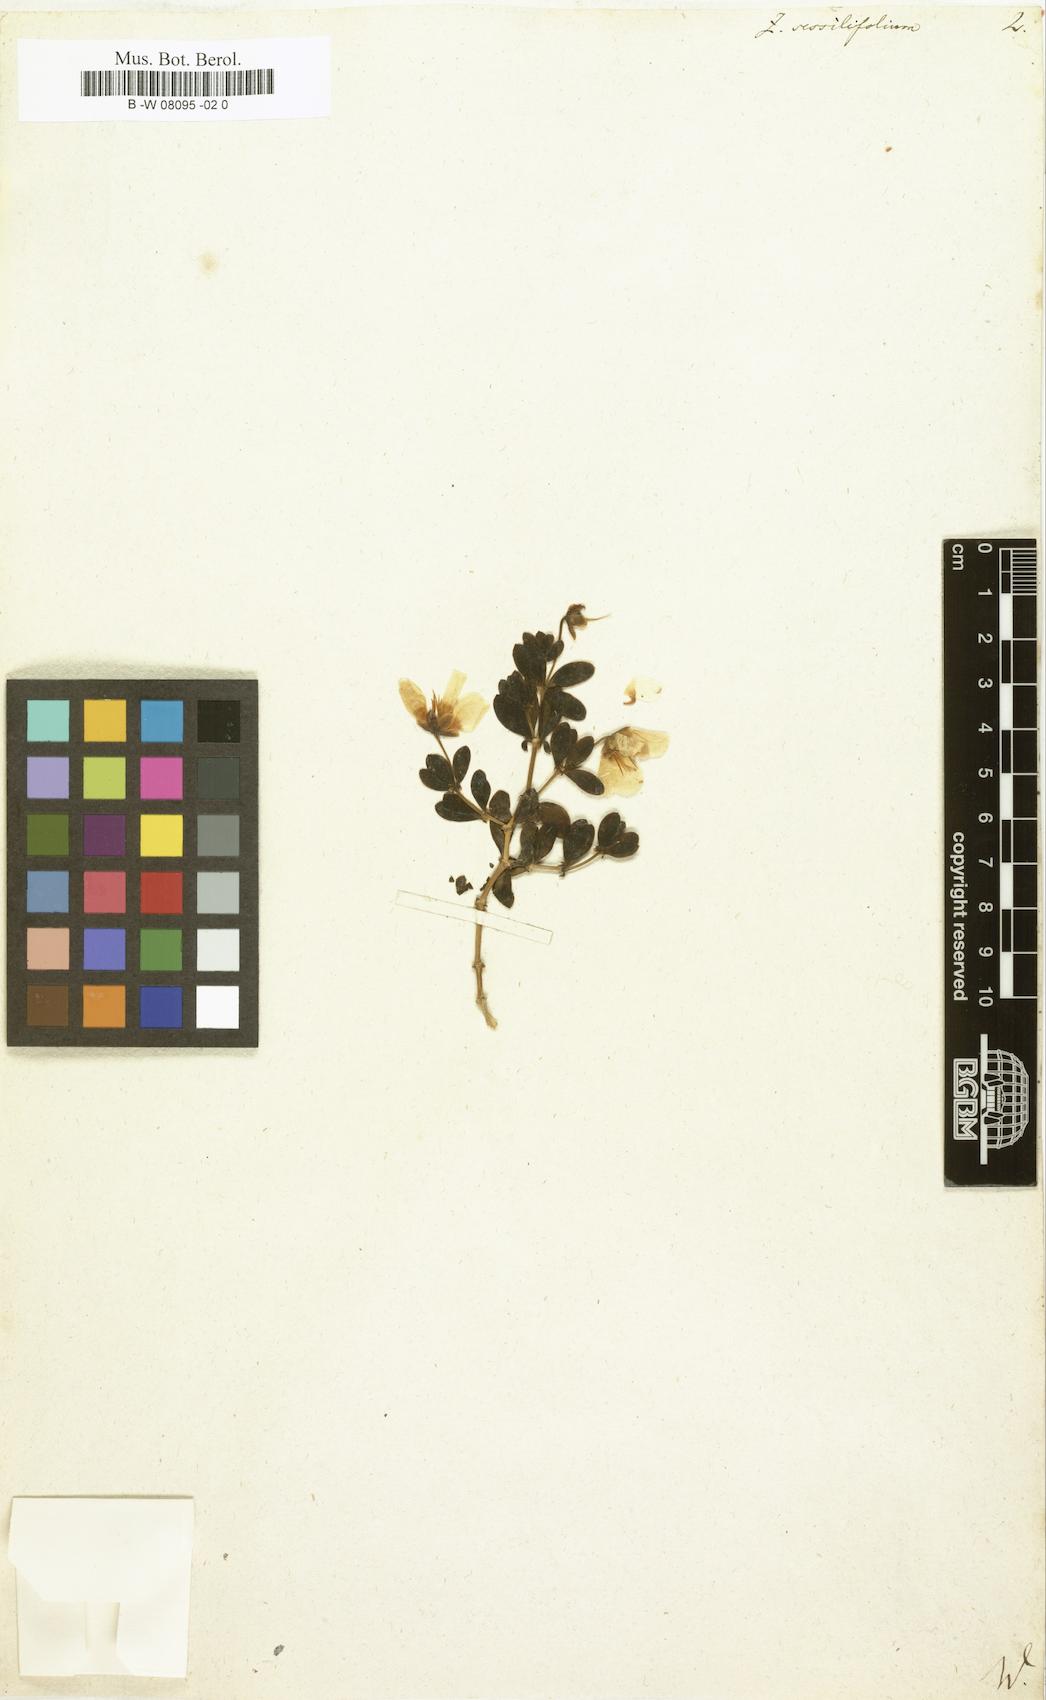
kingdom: Plantae
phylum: Tracheophyta
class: Magnoliopsida
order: Zygophyllales
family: Zygophyllaceae
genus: Roepera
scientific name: Roepera sessilifolia
